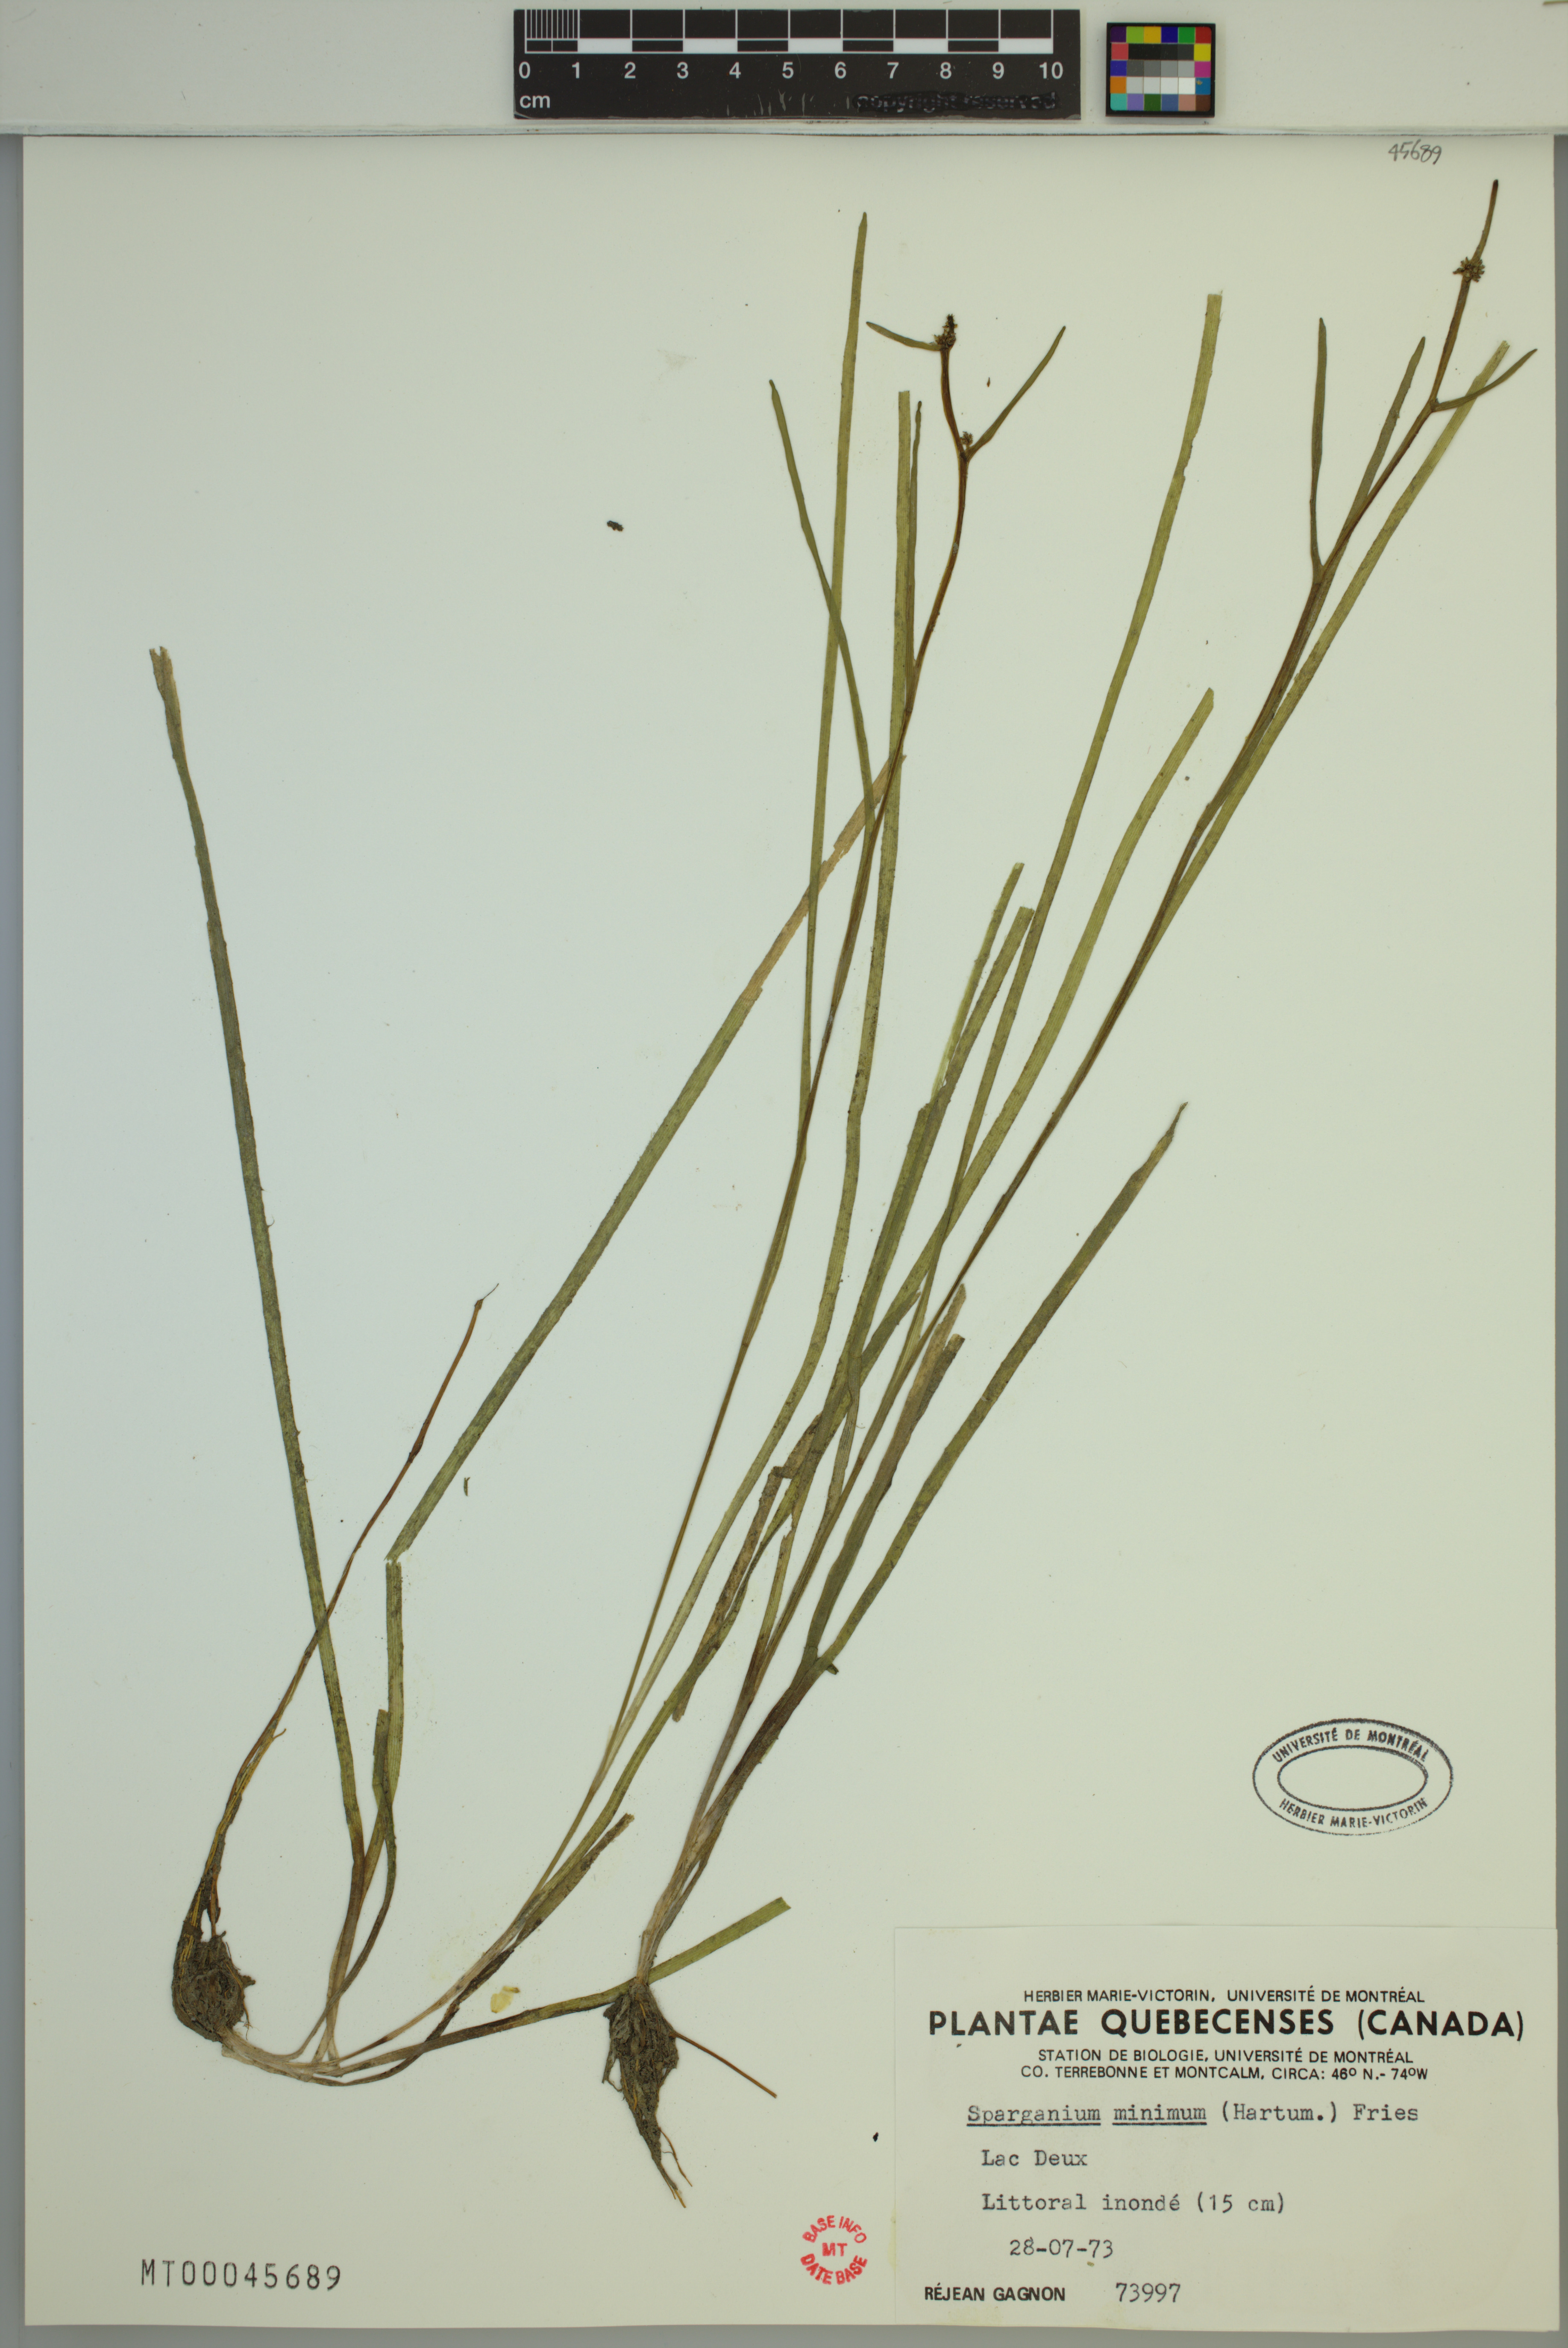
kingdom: Plantae
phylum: Tracheophyta
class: Liliopsida
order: Poales
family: Typhaceae
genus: Sparganium
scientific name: Sparganium natans
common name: Least bur-reed
